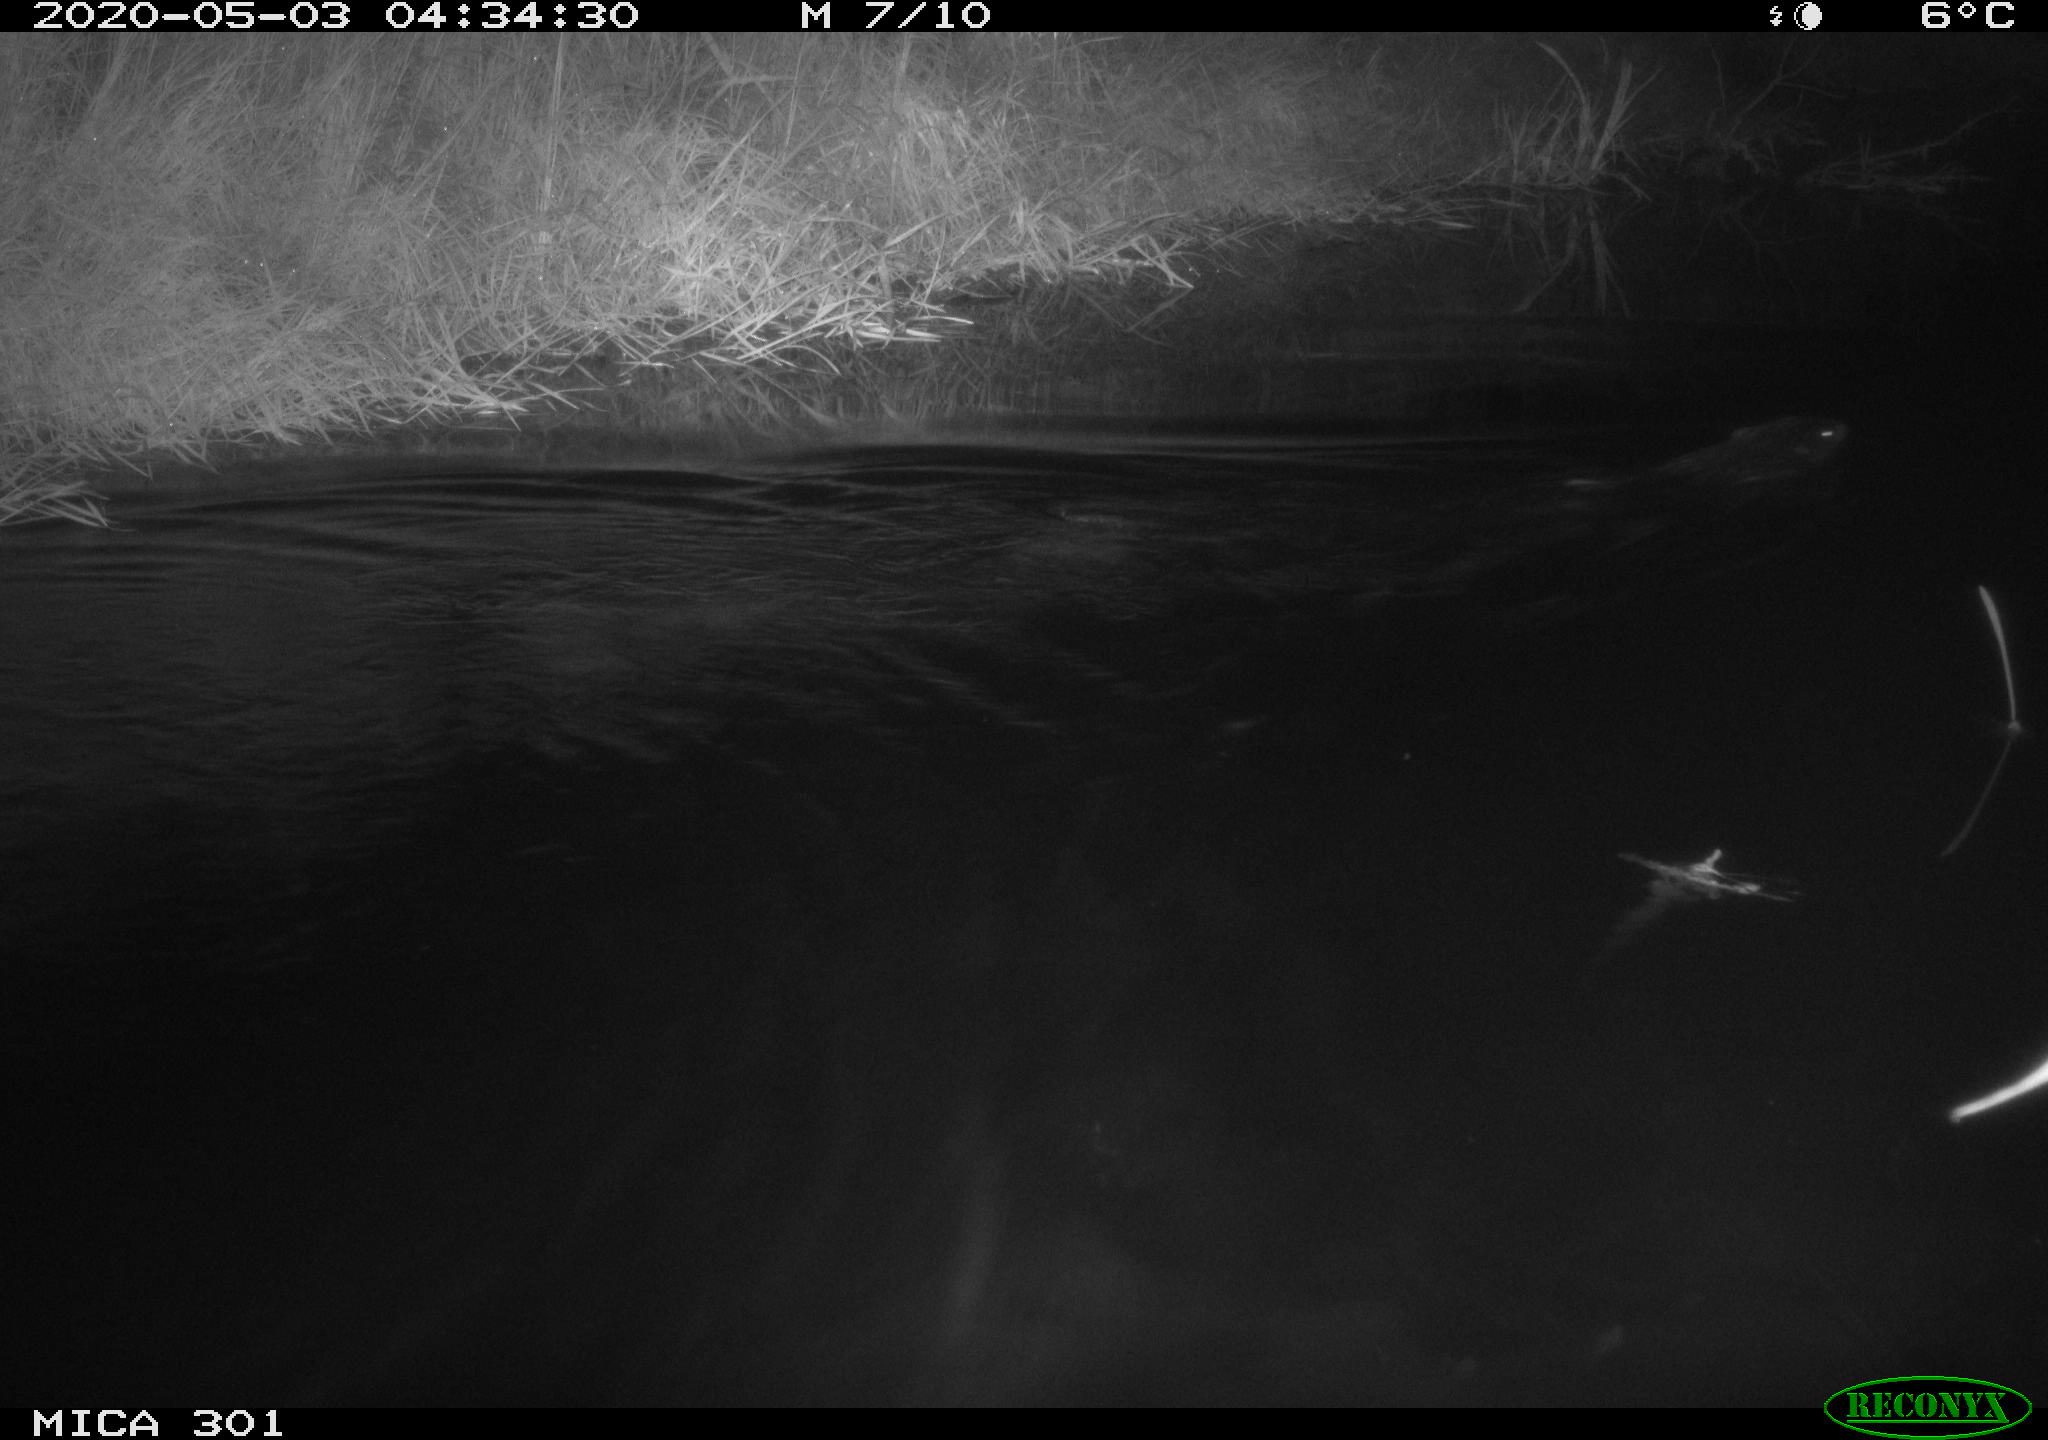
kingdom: Animalia
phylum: Chordata
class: Mammalia
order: Rodentia
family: Castoridae
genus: Castor
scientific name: Castor fiber
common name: Eurasian beaver
